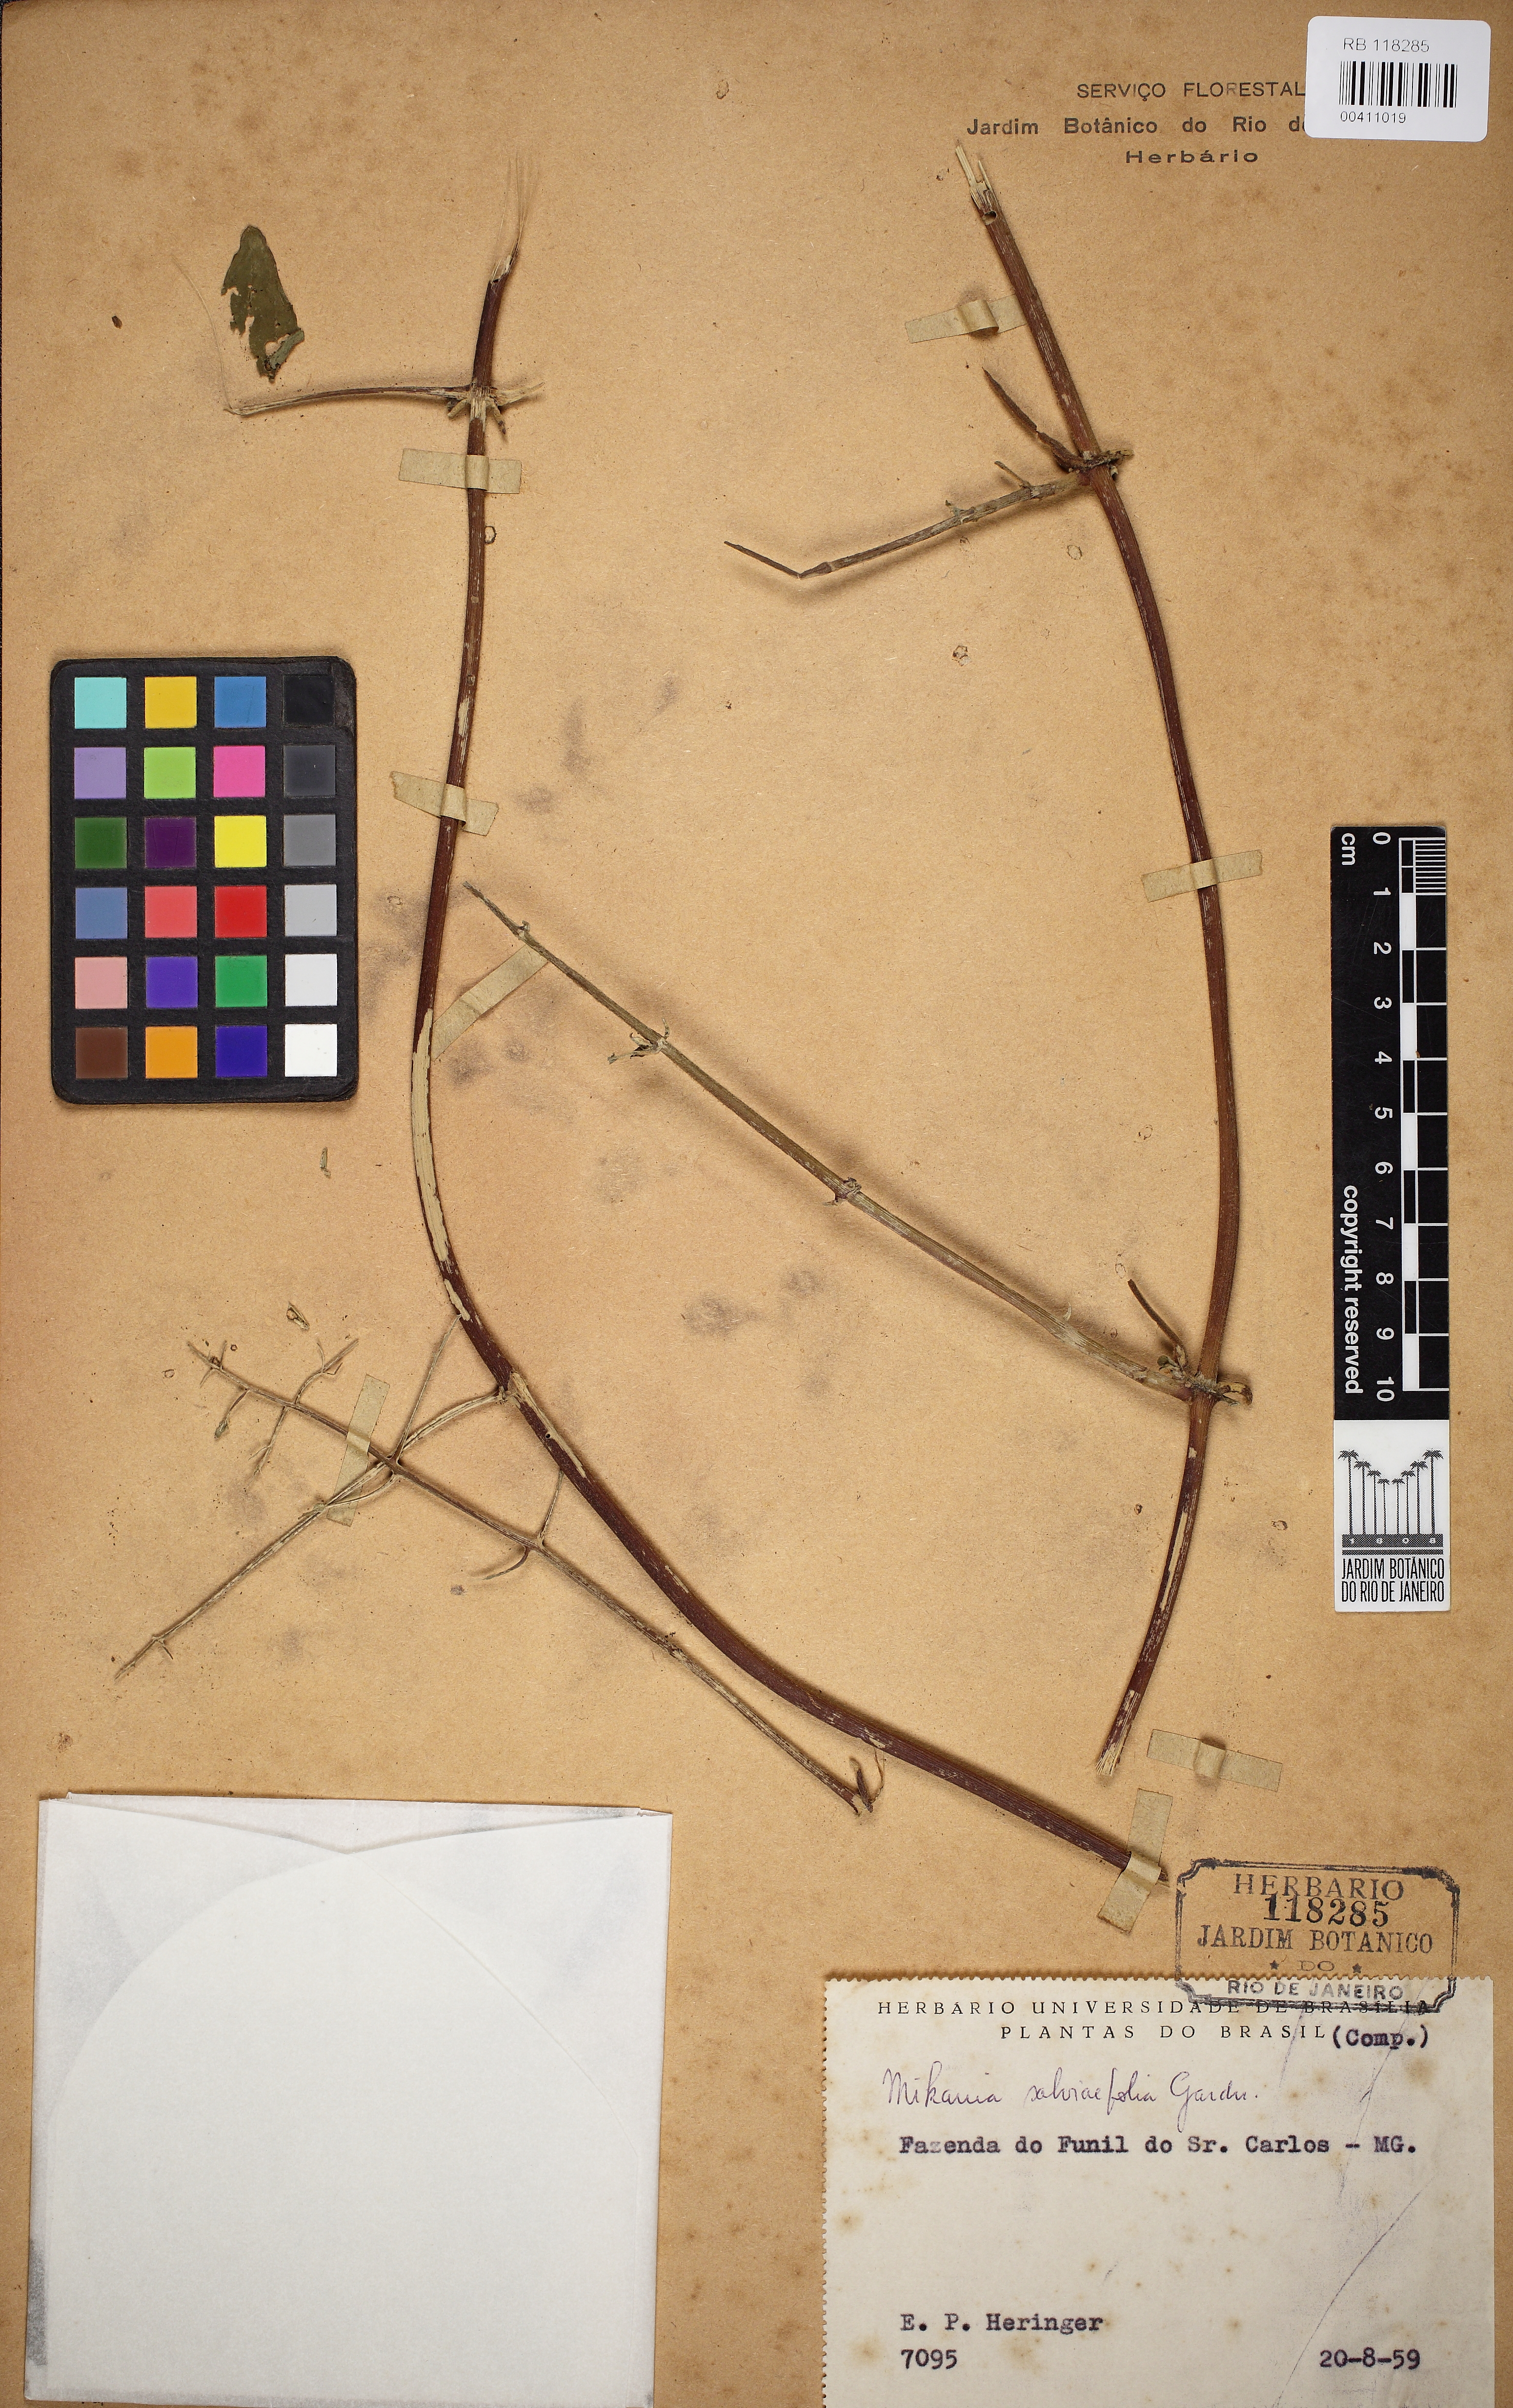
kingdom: Plantae
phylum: Tracheophyta
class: Magnoliopsida
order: Asterales
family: Asteraceae
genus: Mikania
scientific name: Mikania salviaefolia
